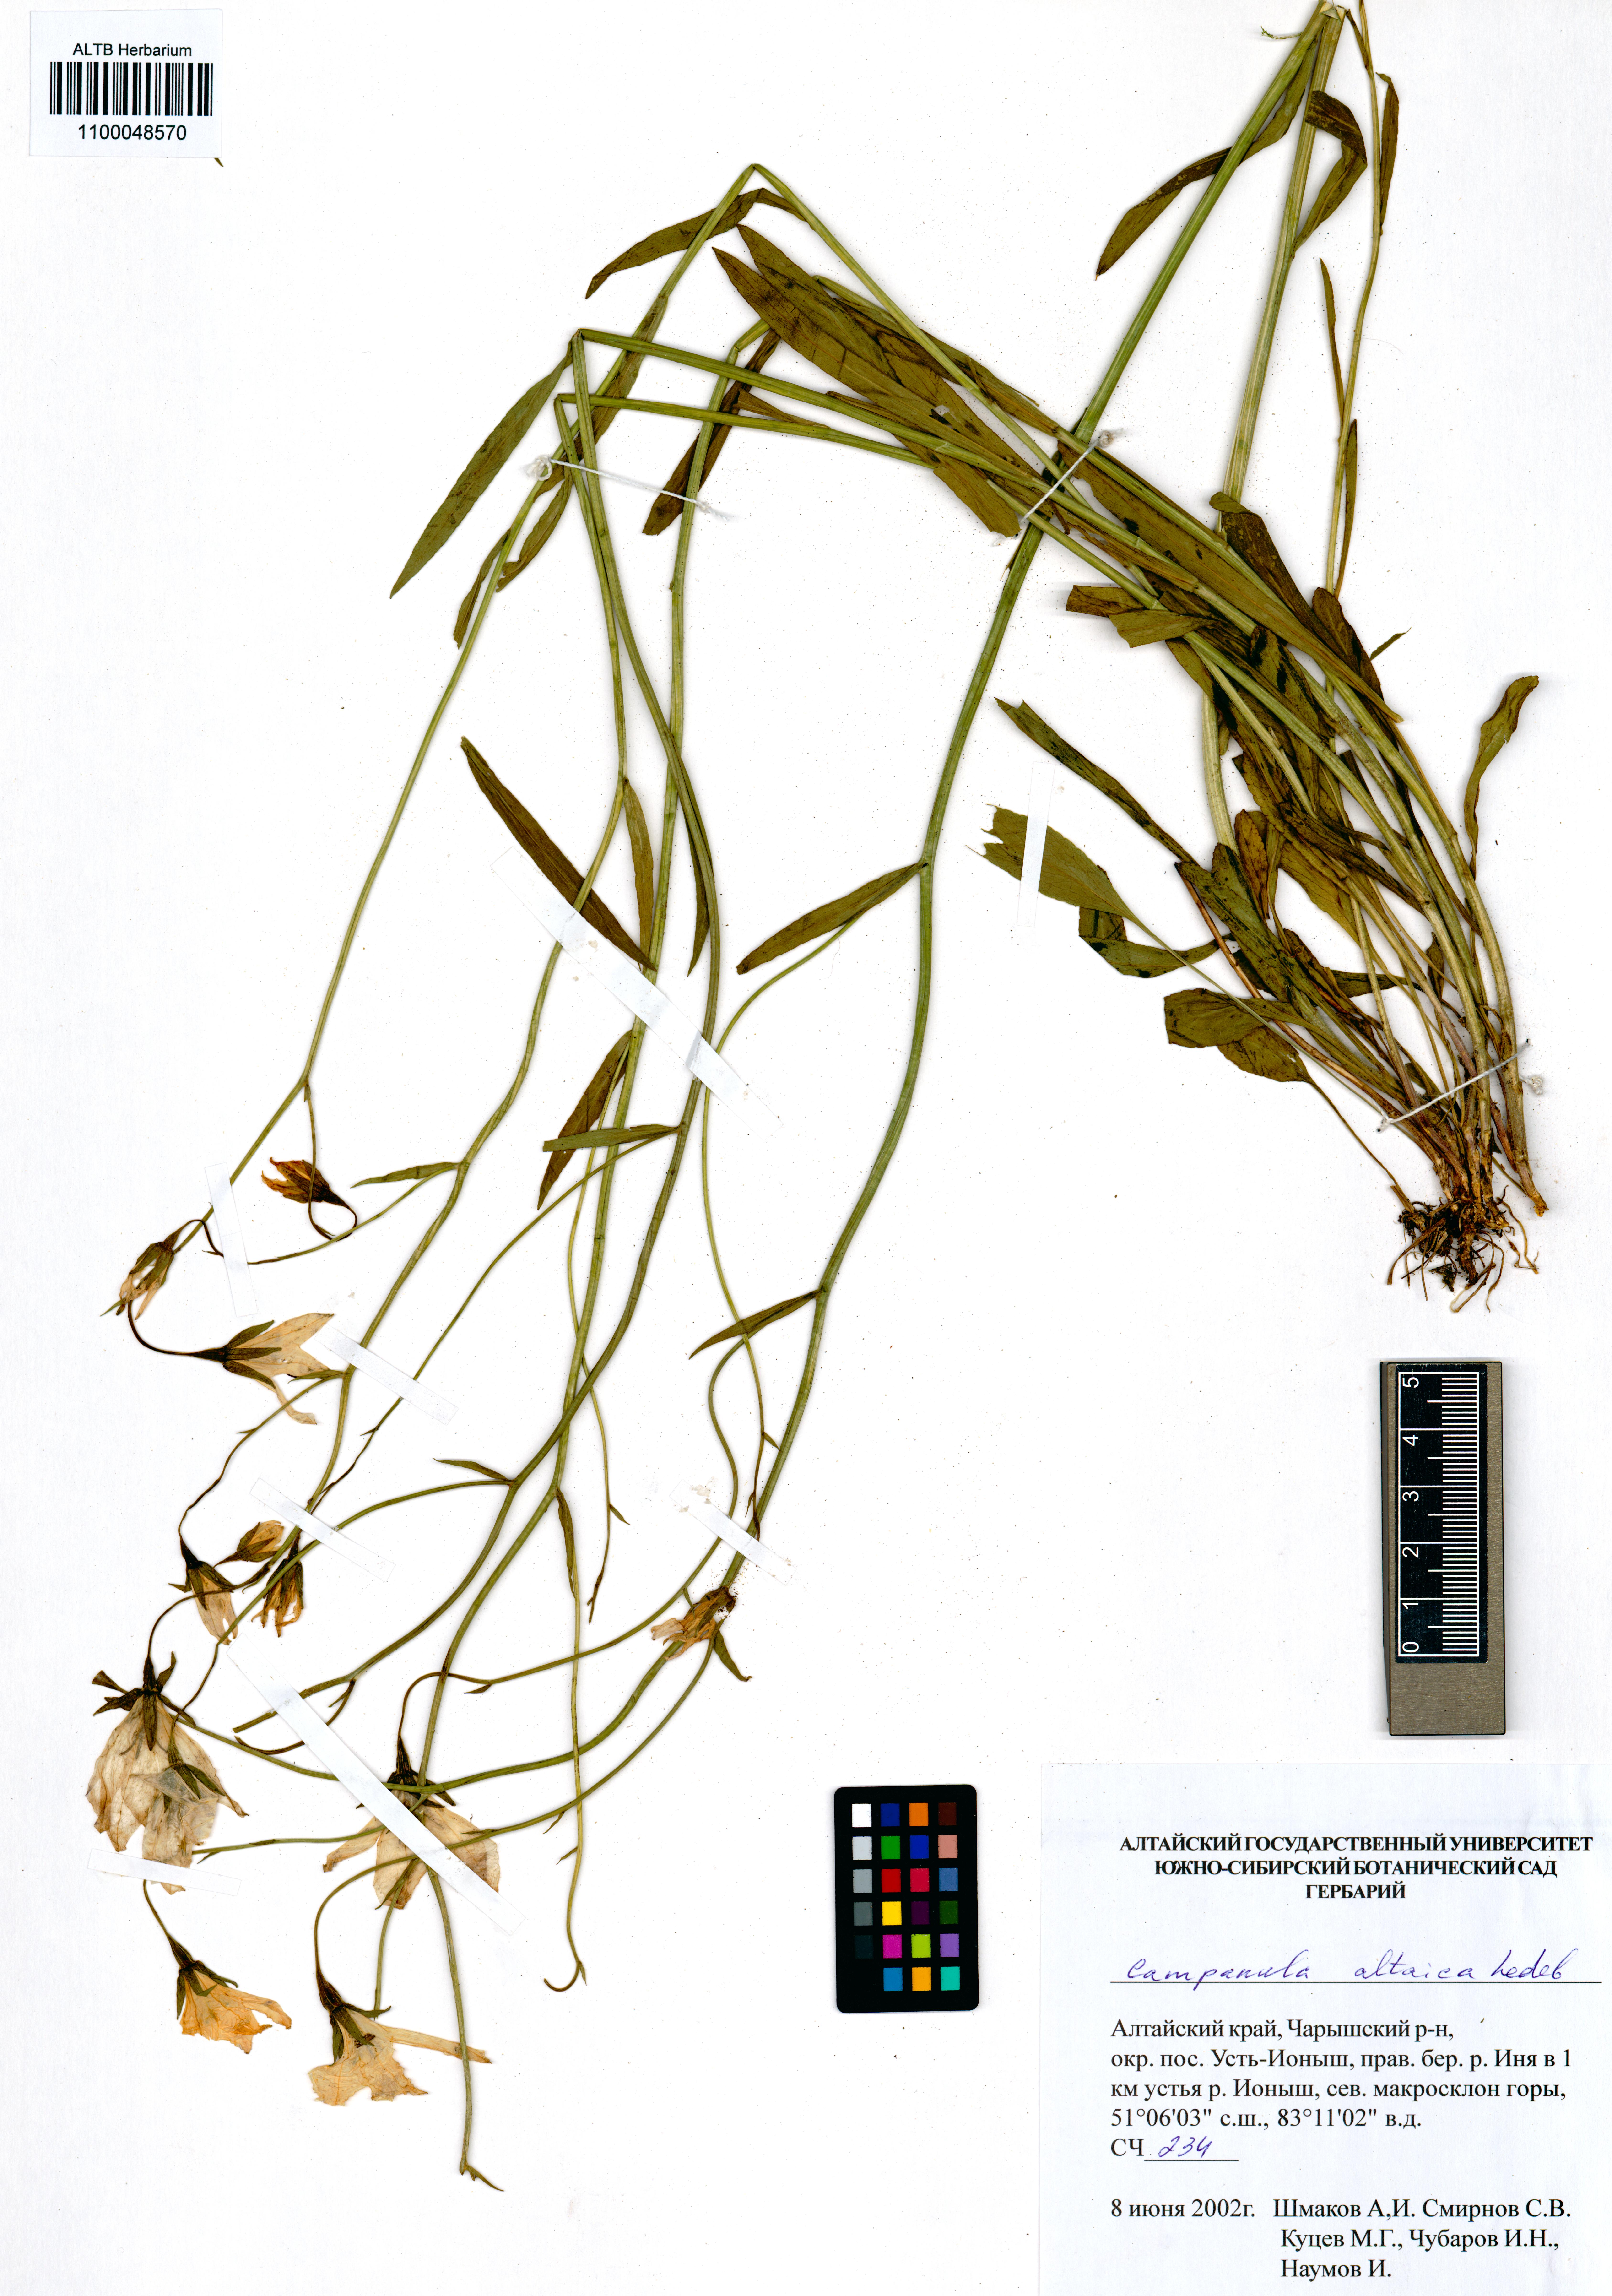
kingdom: Plantae
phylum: Tracheophyta
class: Magnoliopsida
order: Asterales
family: Campanulaceae
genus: Campanula
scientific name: Campanula stevenii
